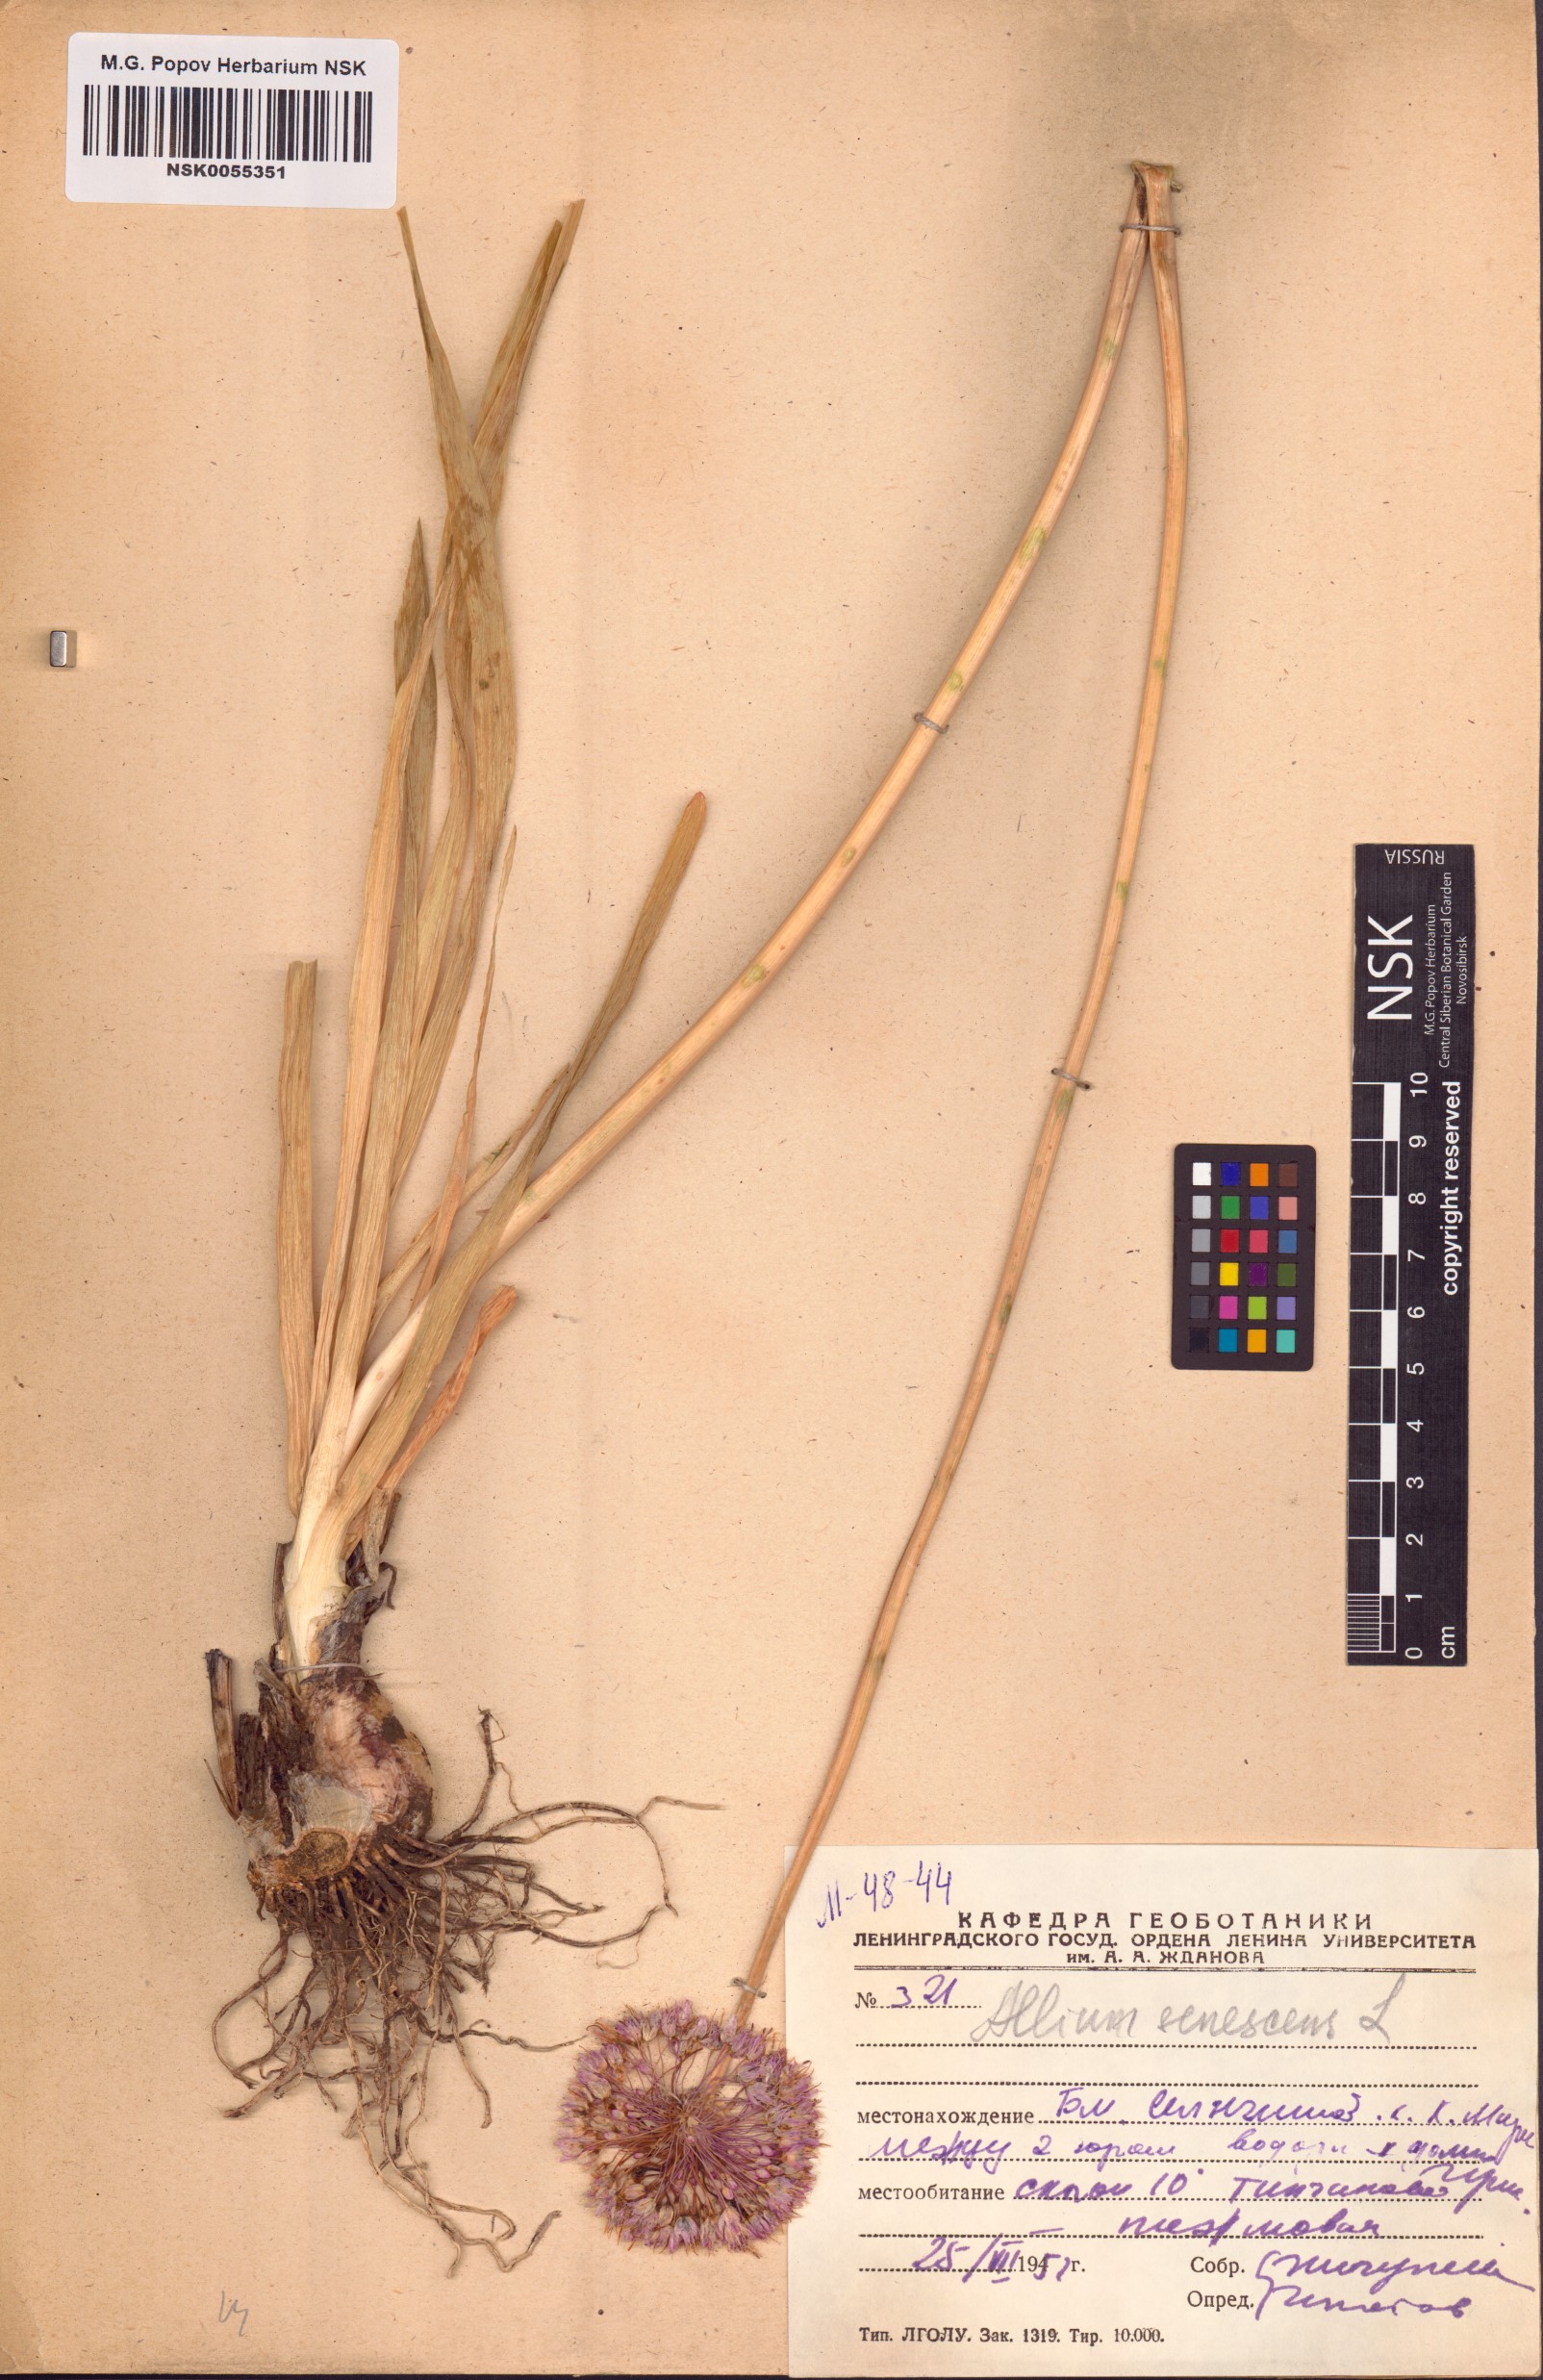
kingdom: Plantae
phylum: Tracheophyta
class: Liliopsida
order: Asparagales
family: Amaryllidaceae
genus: Allium
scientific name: Allium senescens
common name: German garlic
